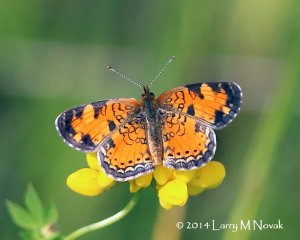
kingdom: Animalia
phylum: Arthropoda
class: Insecta
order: Lepidoptera
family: Nymphalidae
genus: Phyciodes
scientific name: Phyciodes tharos
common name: Northern Crescent
